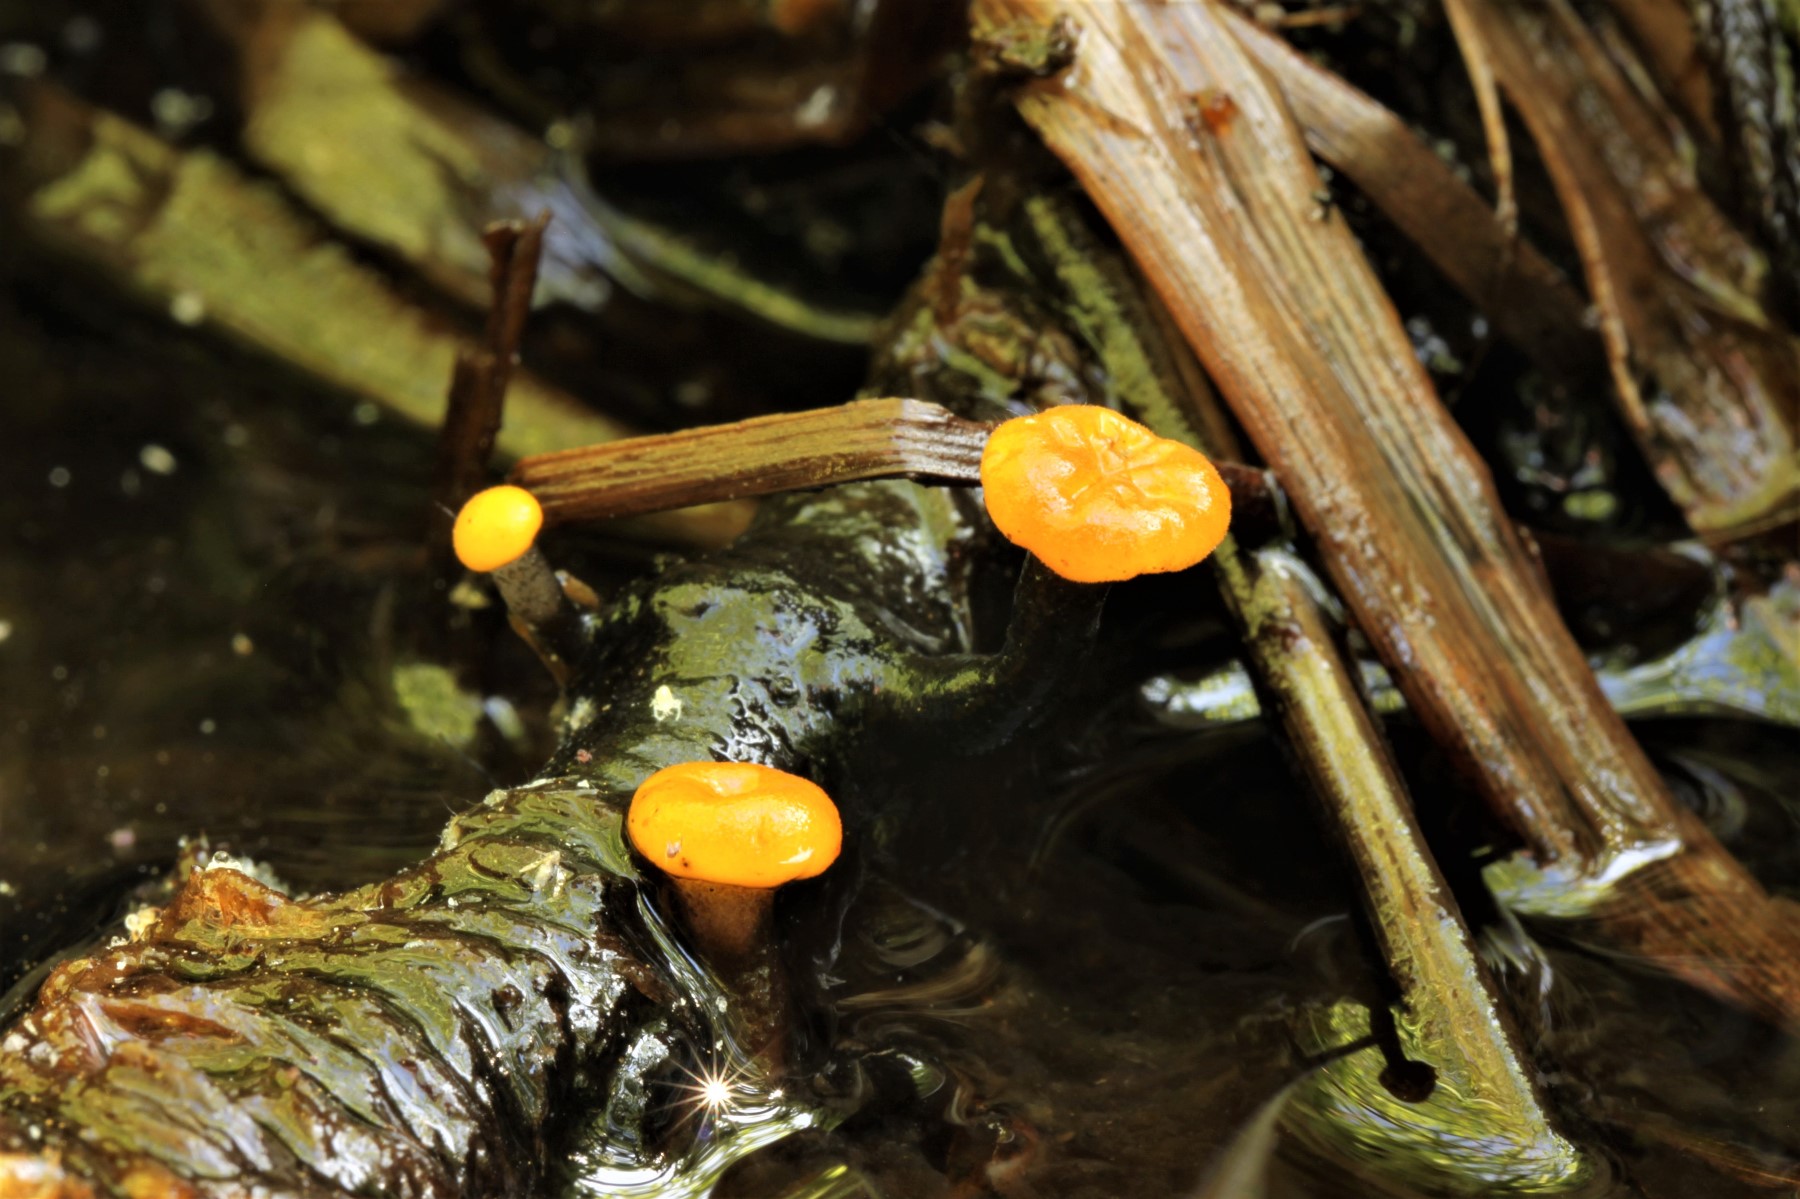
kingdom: Fungi
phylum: Ascomycota
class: Leotiomycetes
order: Helotiales
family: Vibrisseaceae
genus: Vibrissea
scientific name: Vibrissea truncorum
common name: stilket bækskive
